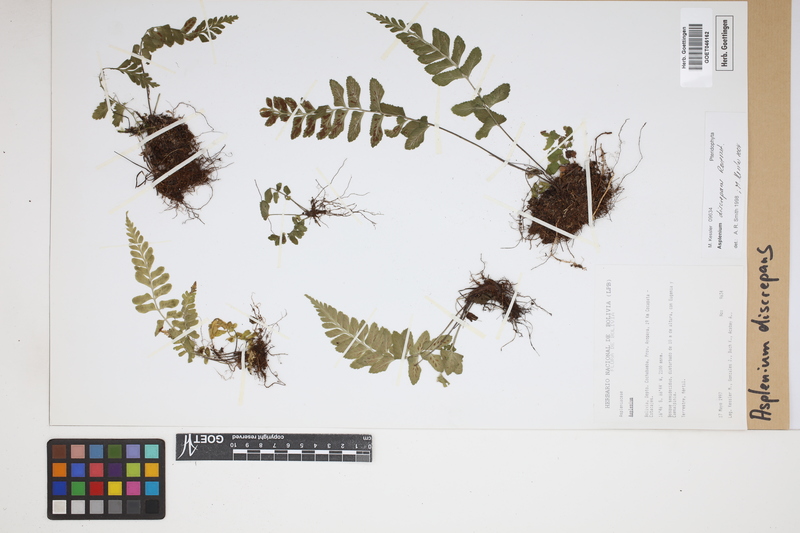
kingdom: Plantae
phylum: Tracheophyta
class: Polypodiopsida
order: Polypodiales
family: Aspleniaceae
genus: Asplenium
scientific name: Asplenium discrepans
